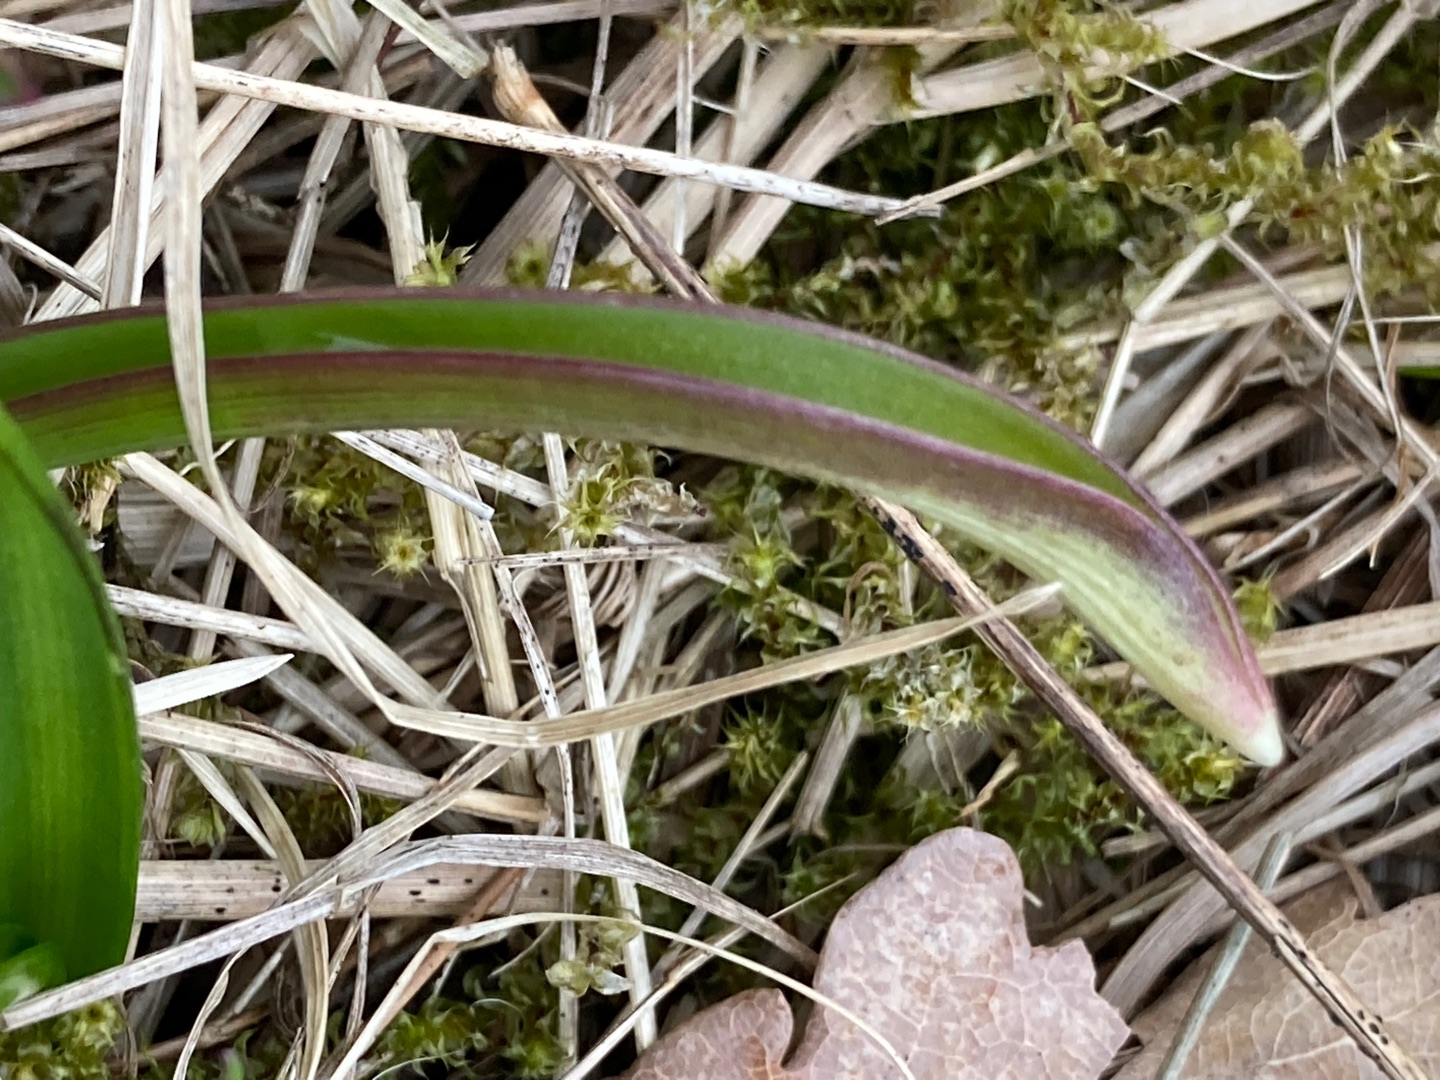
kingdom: Plantae
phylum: Tracheophyta
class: Liliopsida
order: Asparagales
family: Asparagaceae
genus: Scilla
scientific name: Scilla forbesii
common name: Almindelig snepryd
